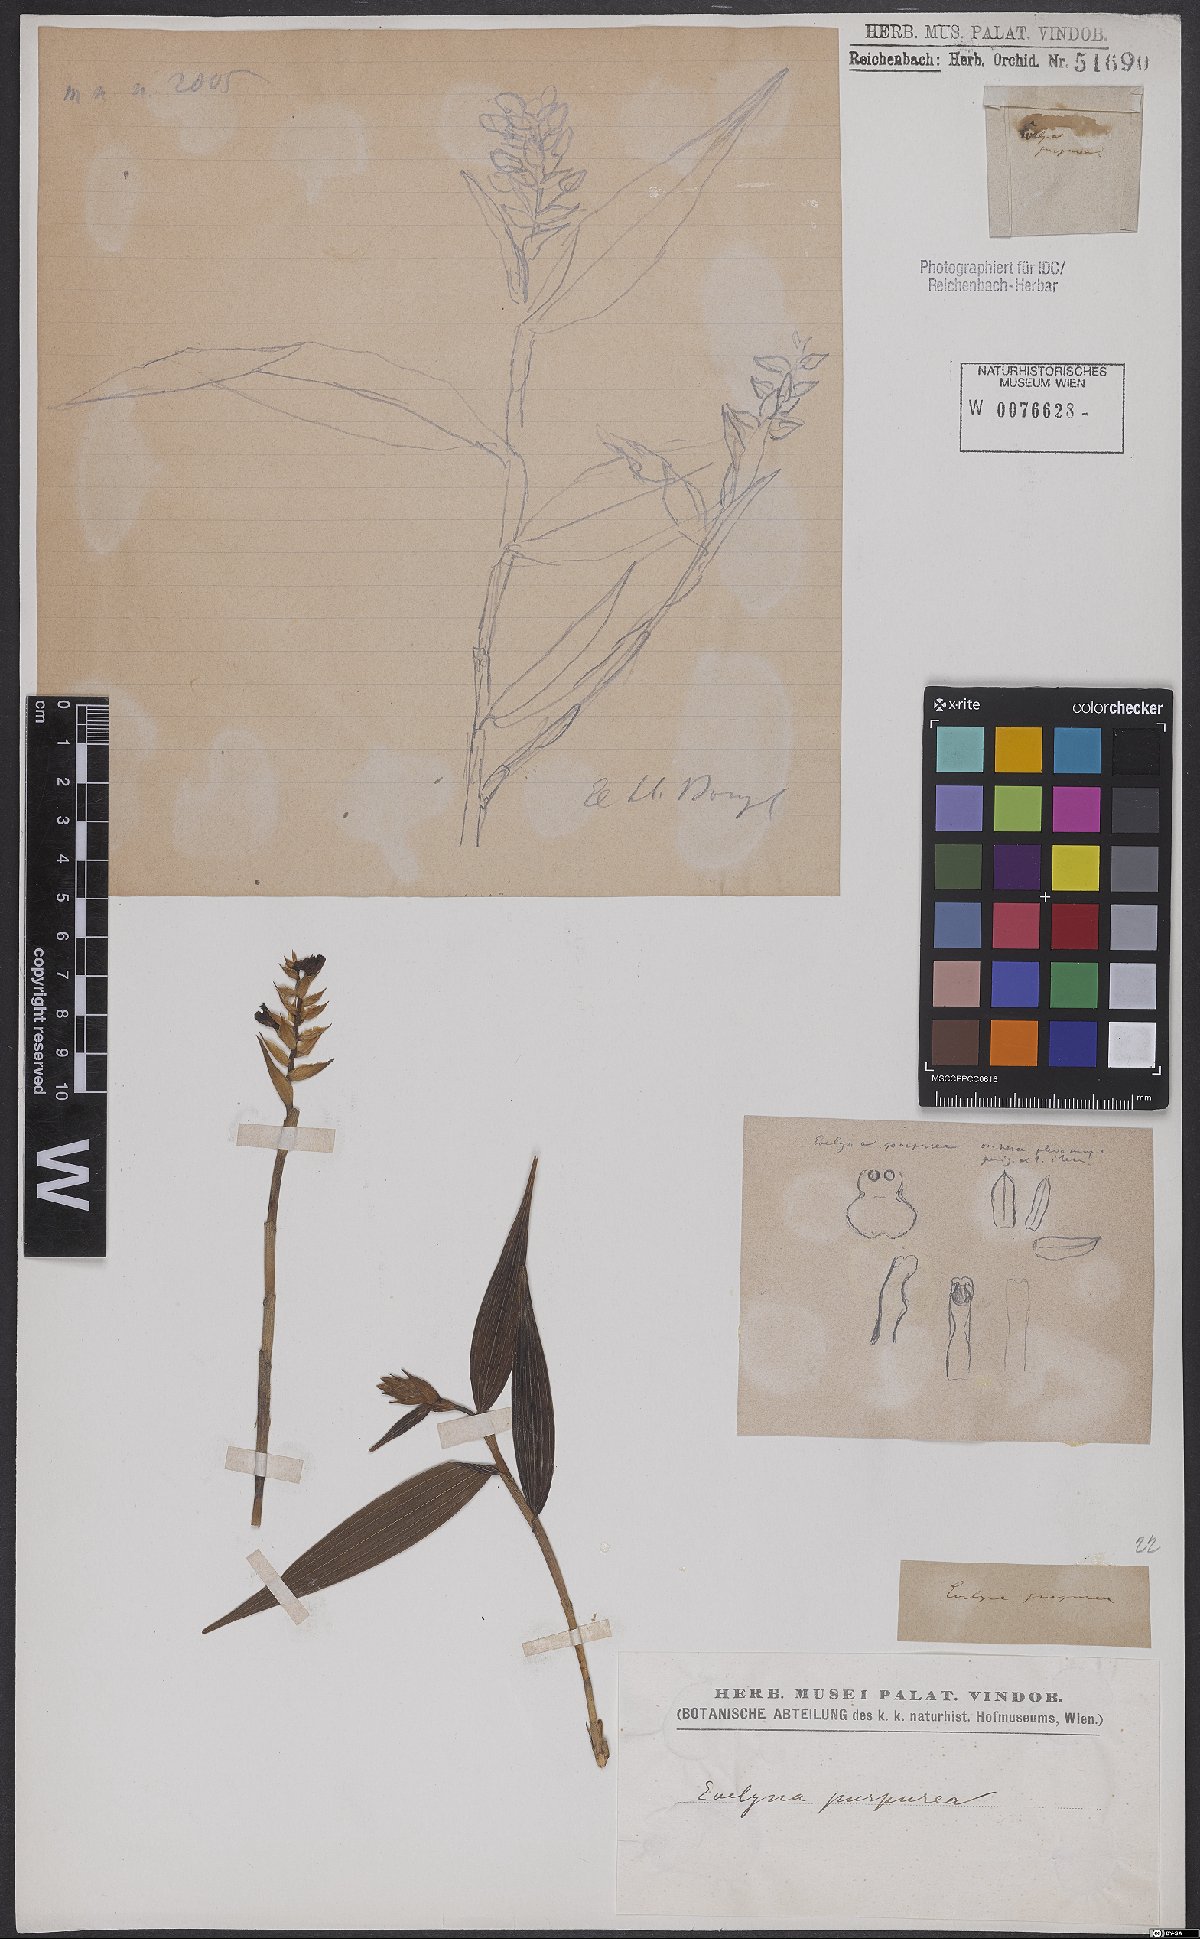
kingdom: Plantae
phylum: Tracheophyta
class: Liliopsida
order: Asparagales
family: Orchidaceae
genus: Sertifera
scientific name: Sertifera purpurea
